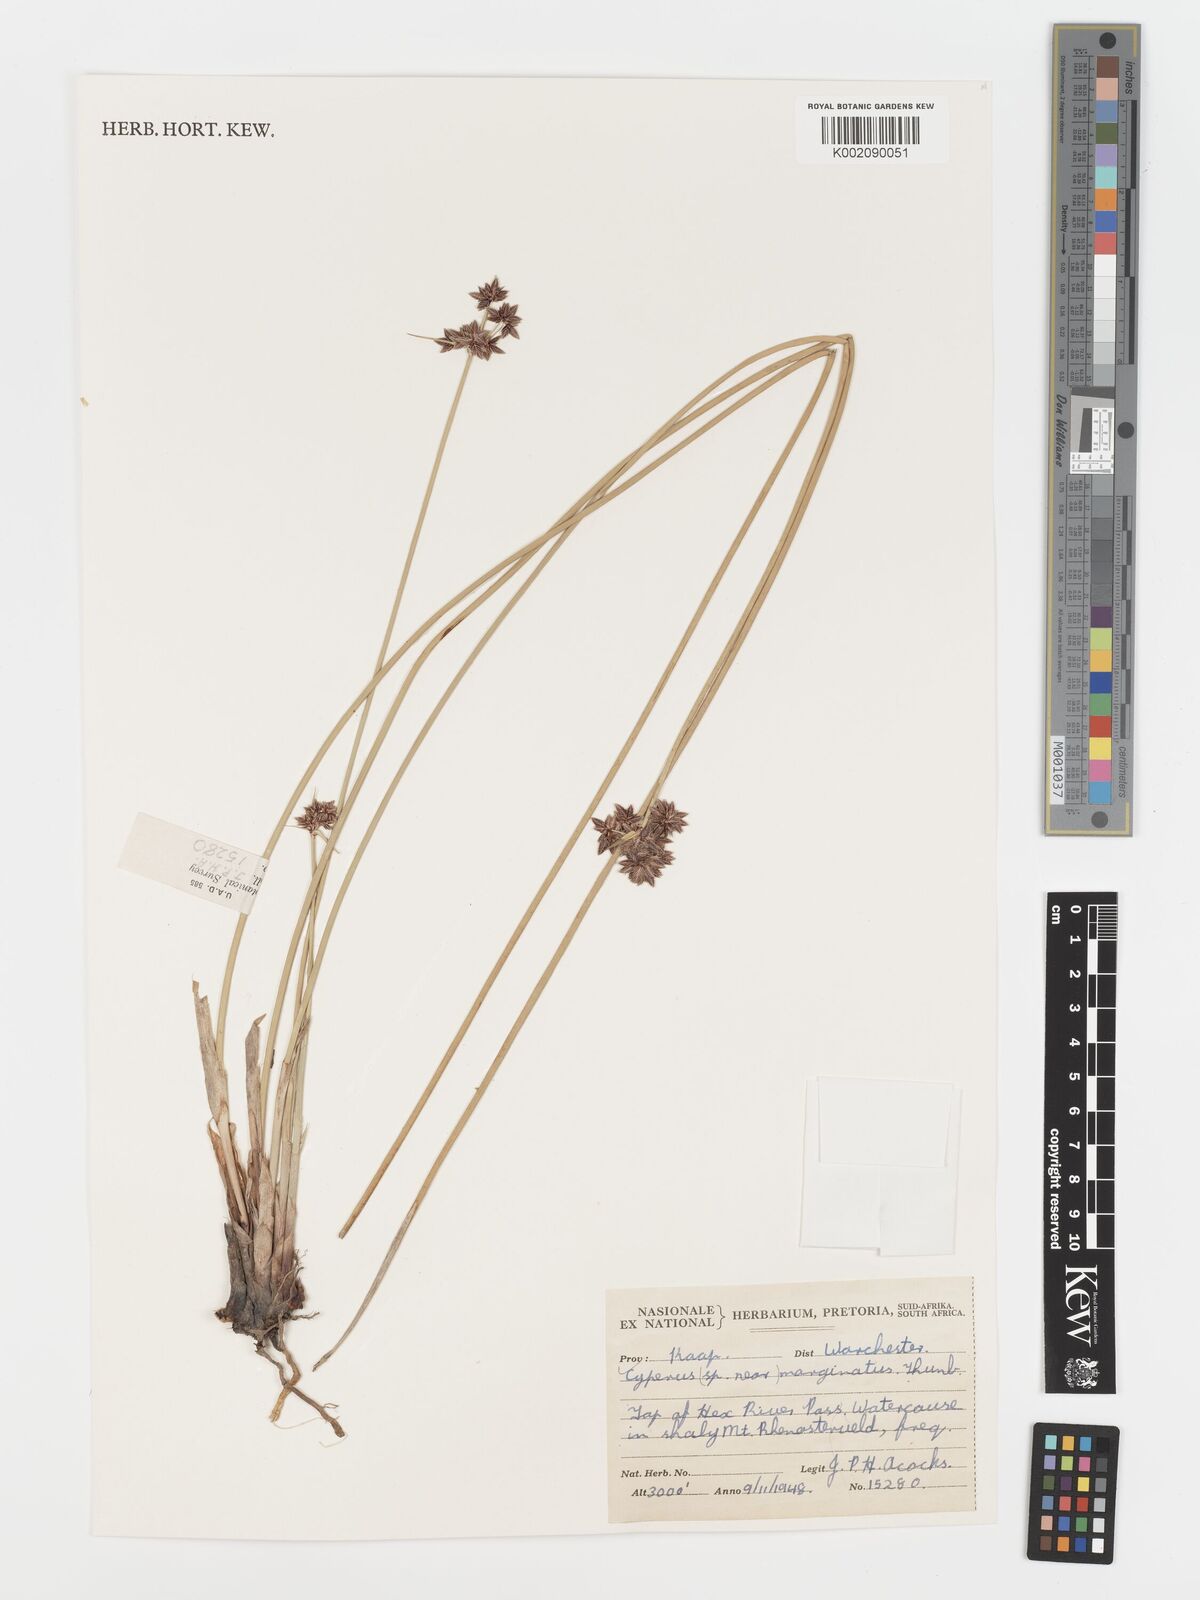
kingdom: Plantae
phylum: Tracheophyta
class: Liliopsida
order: Poales
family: Cyperaceae
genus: Cyperus
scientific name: Cyperus marginatus
